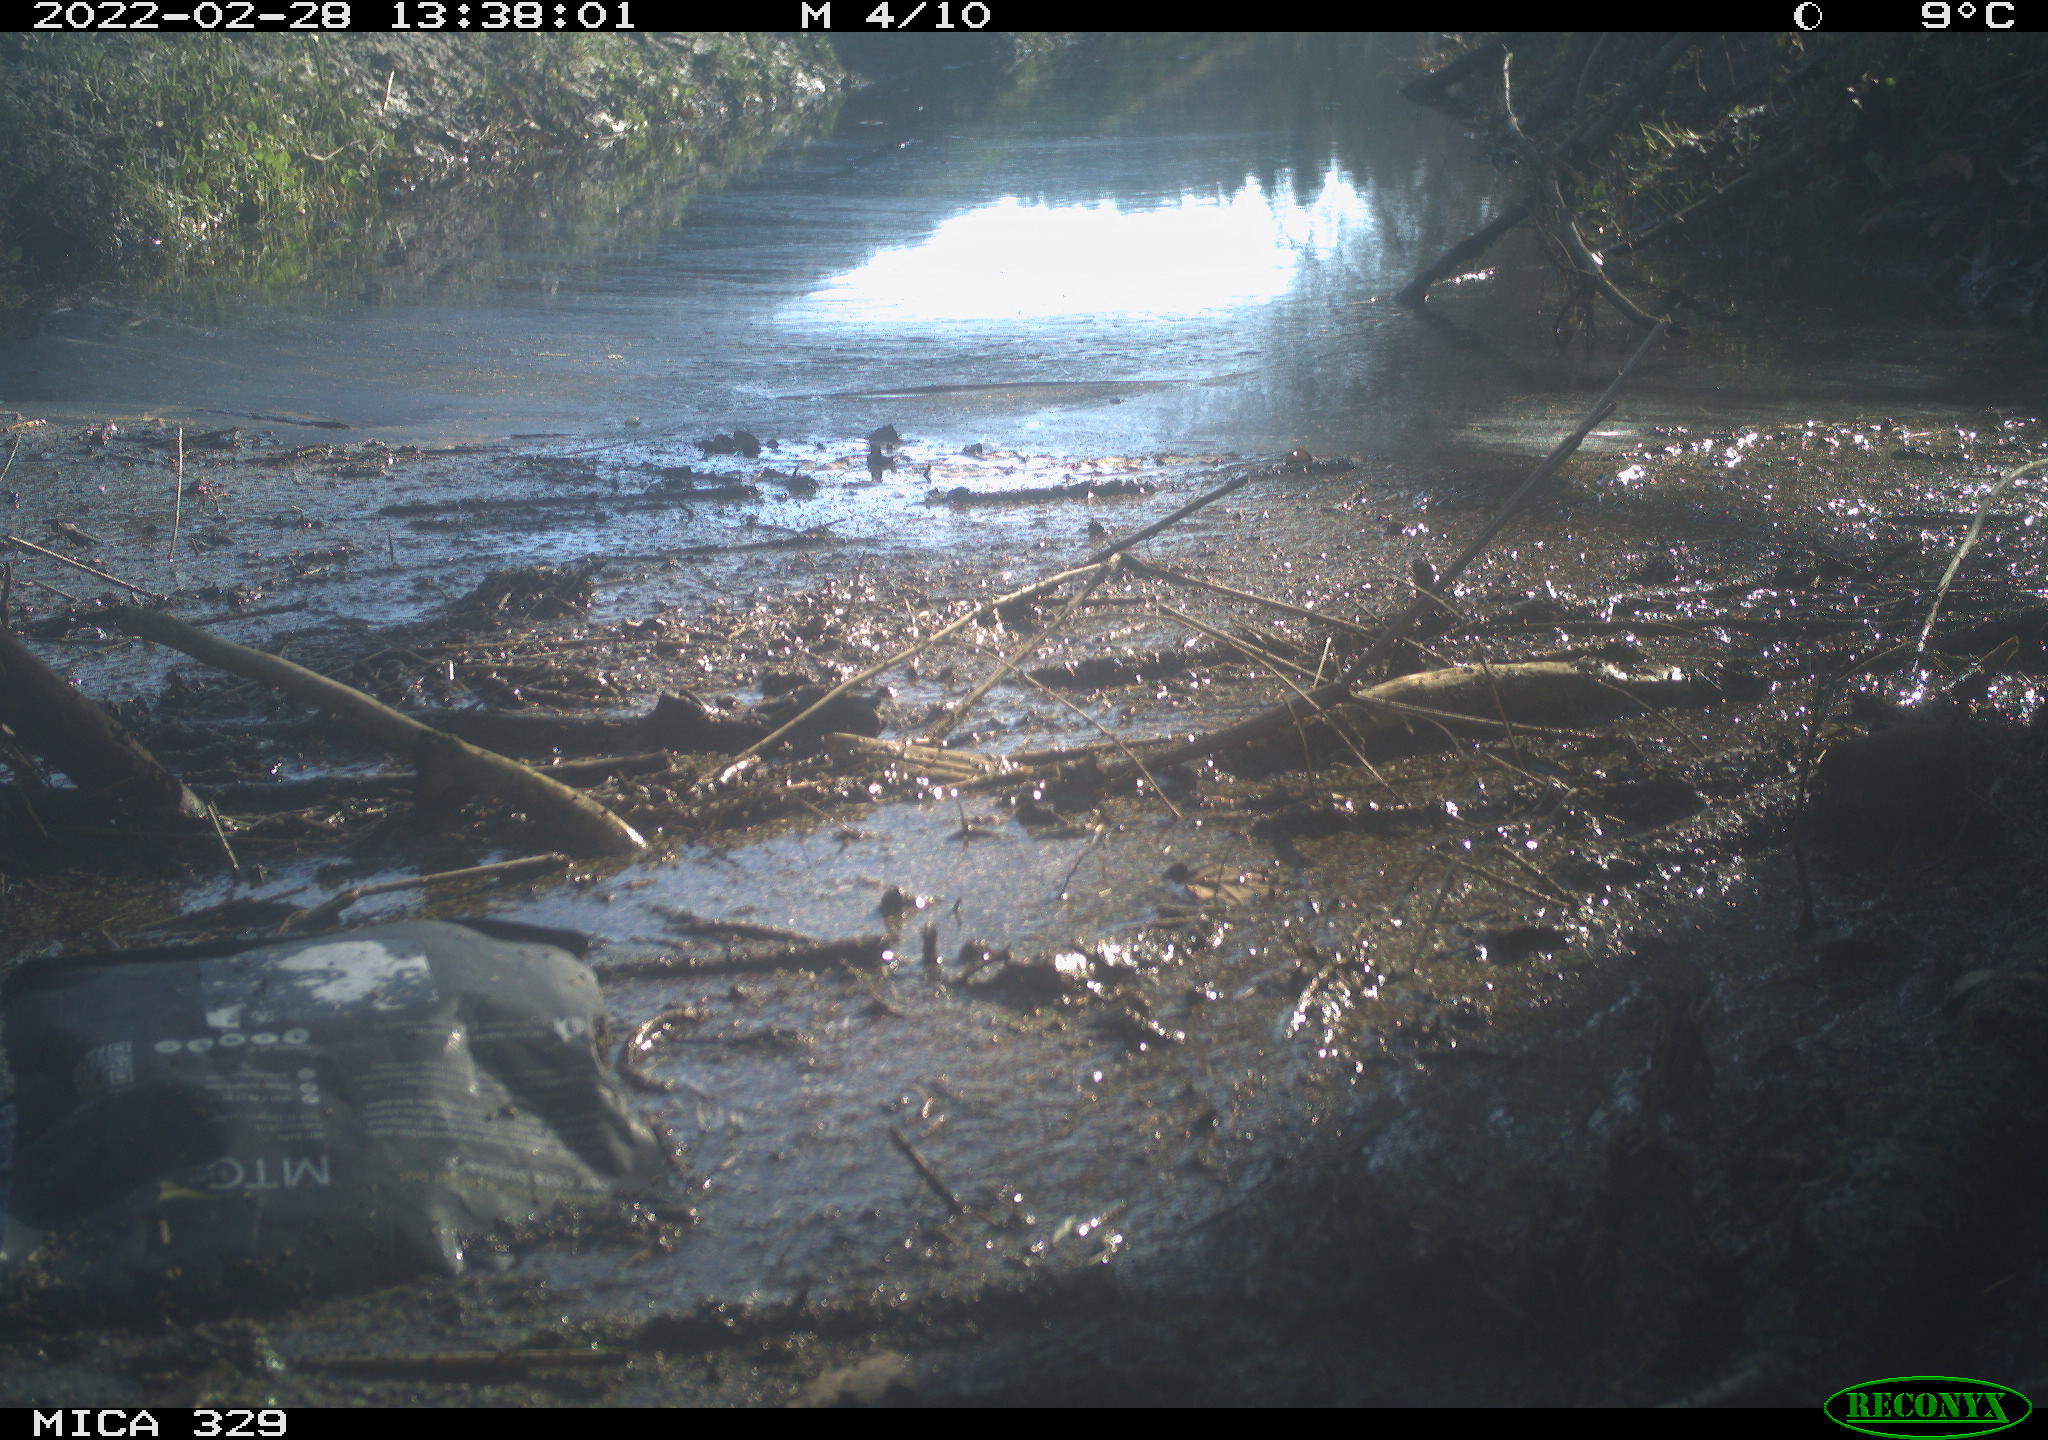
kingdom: Animalia
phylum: Chordata
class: Aves
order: Passeriformes
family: Troglodytidae
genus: Troglodytes
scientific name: Troglodytes troglodytes
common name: Eurasian wren
